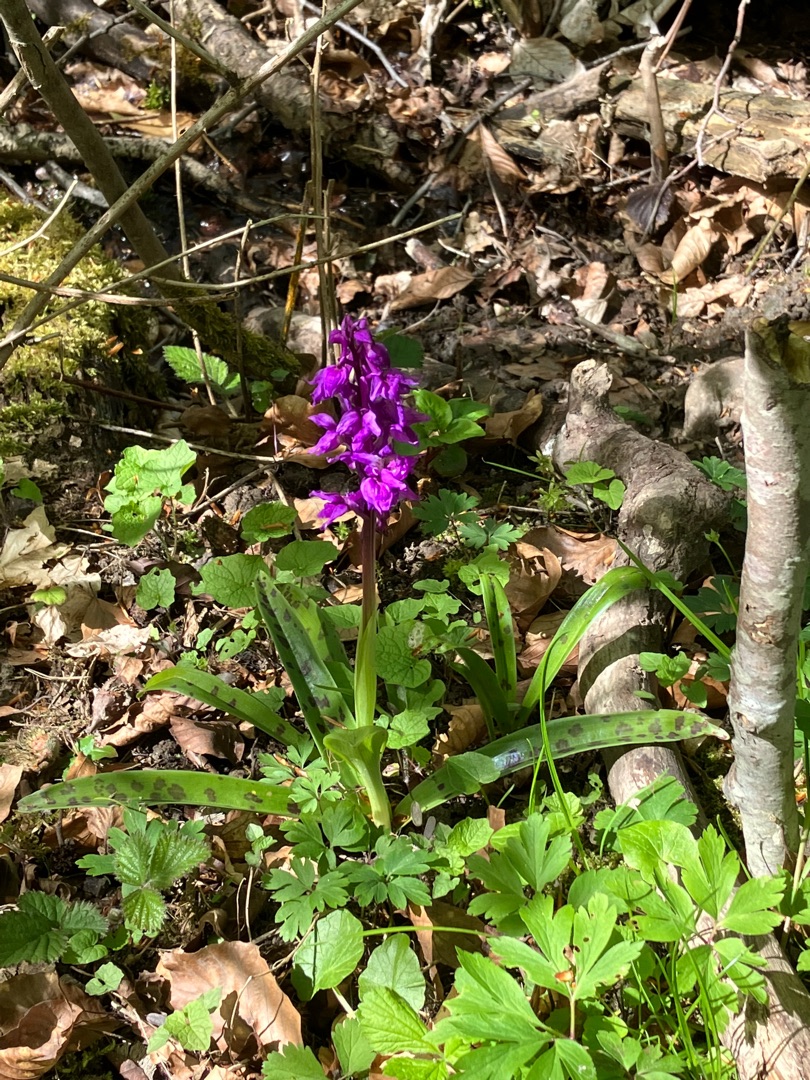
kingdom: Plantae
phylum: Tracheophyta
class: Liliopsida
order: Asparagales
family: Orchidaceae
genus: Orchis
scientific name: Orchis mascula
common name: Tyndakset gøgeurt
